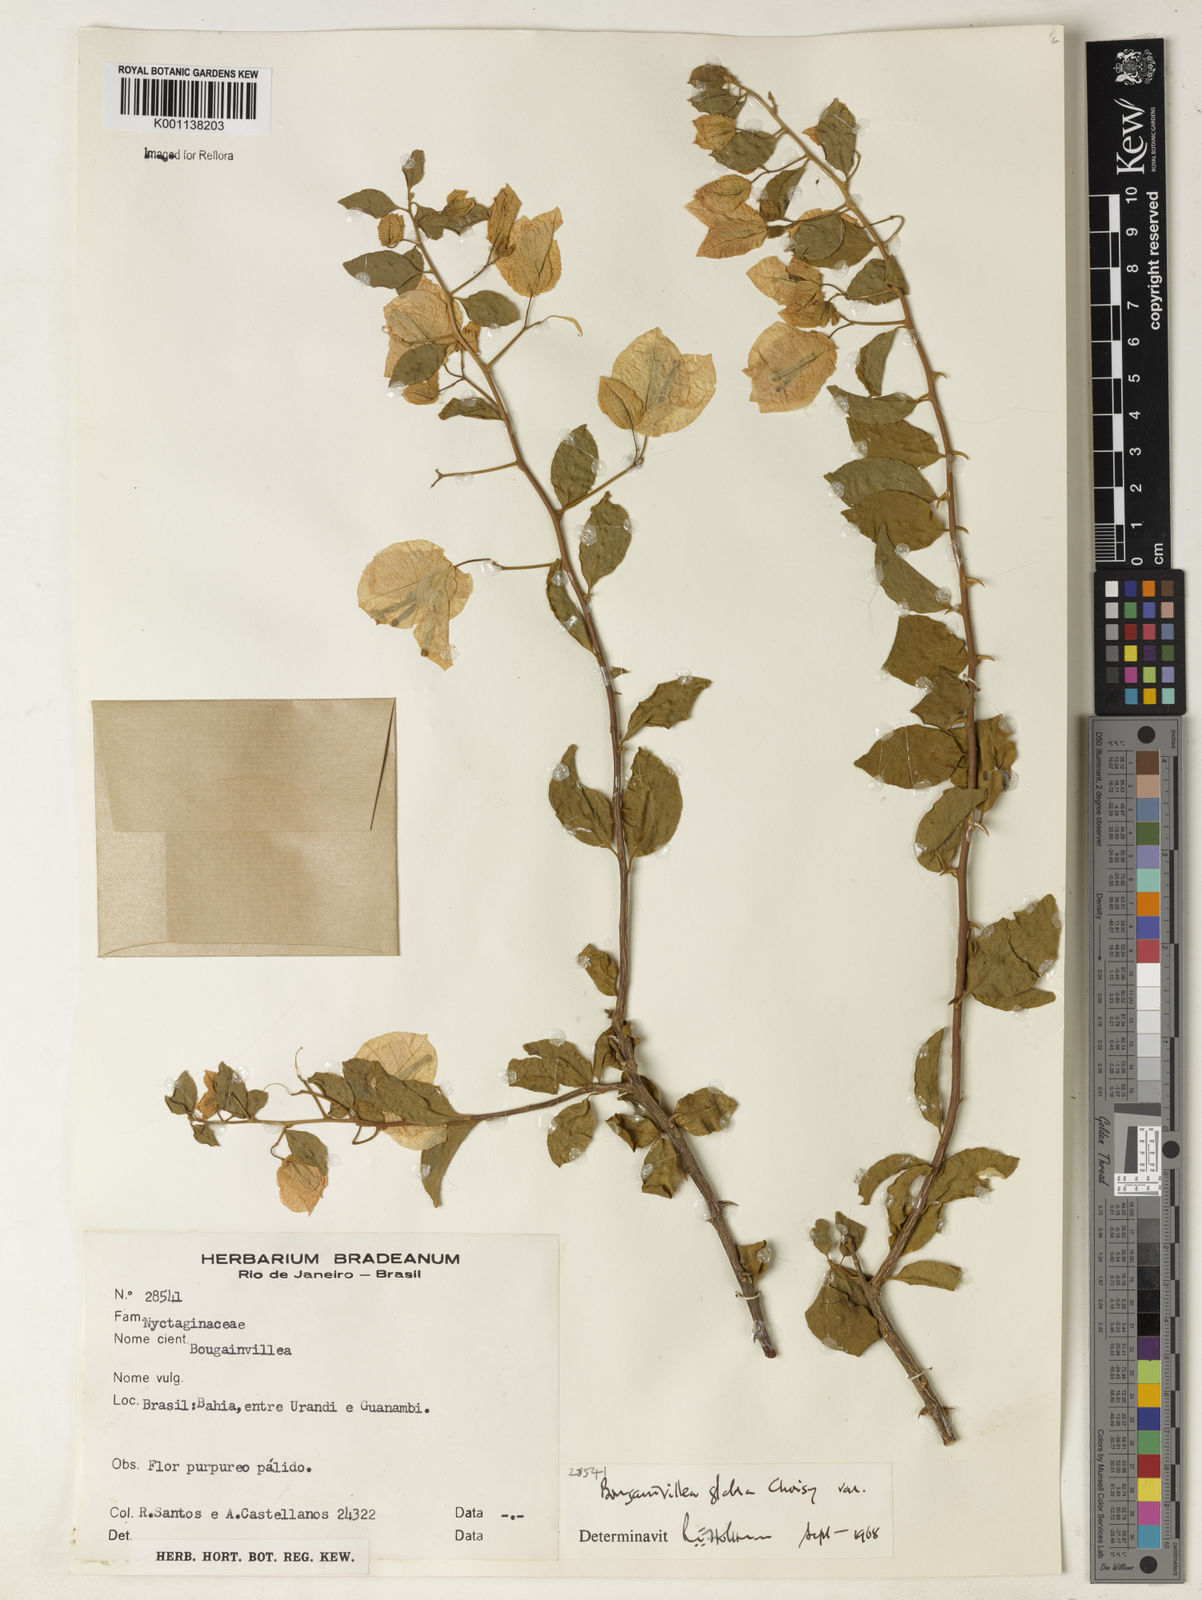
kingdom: Plantae
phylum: Tracheophyta
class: Magnoliopsida
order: Caryophyllales
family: Nyctaginaceae
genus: Bougainvillea
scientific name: Bougainvillea glabra
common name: Paperflower
